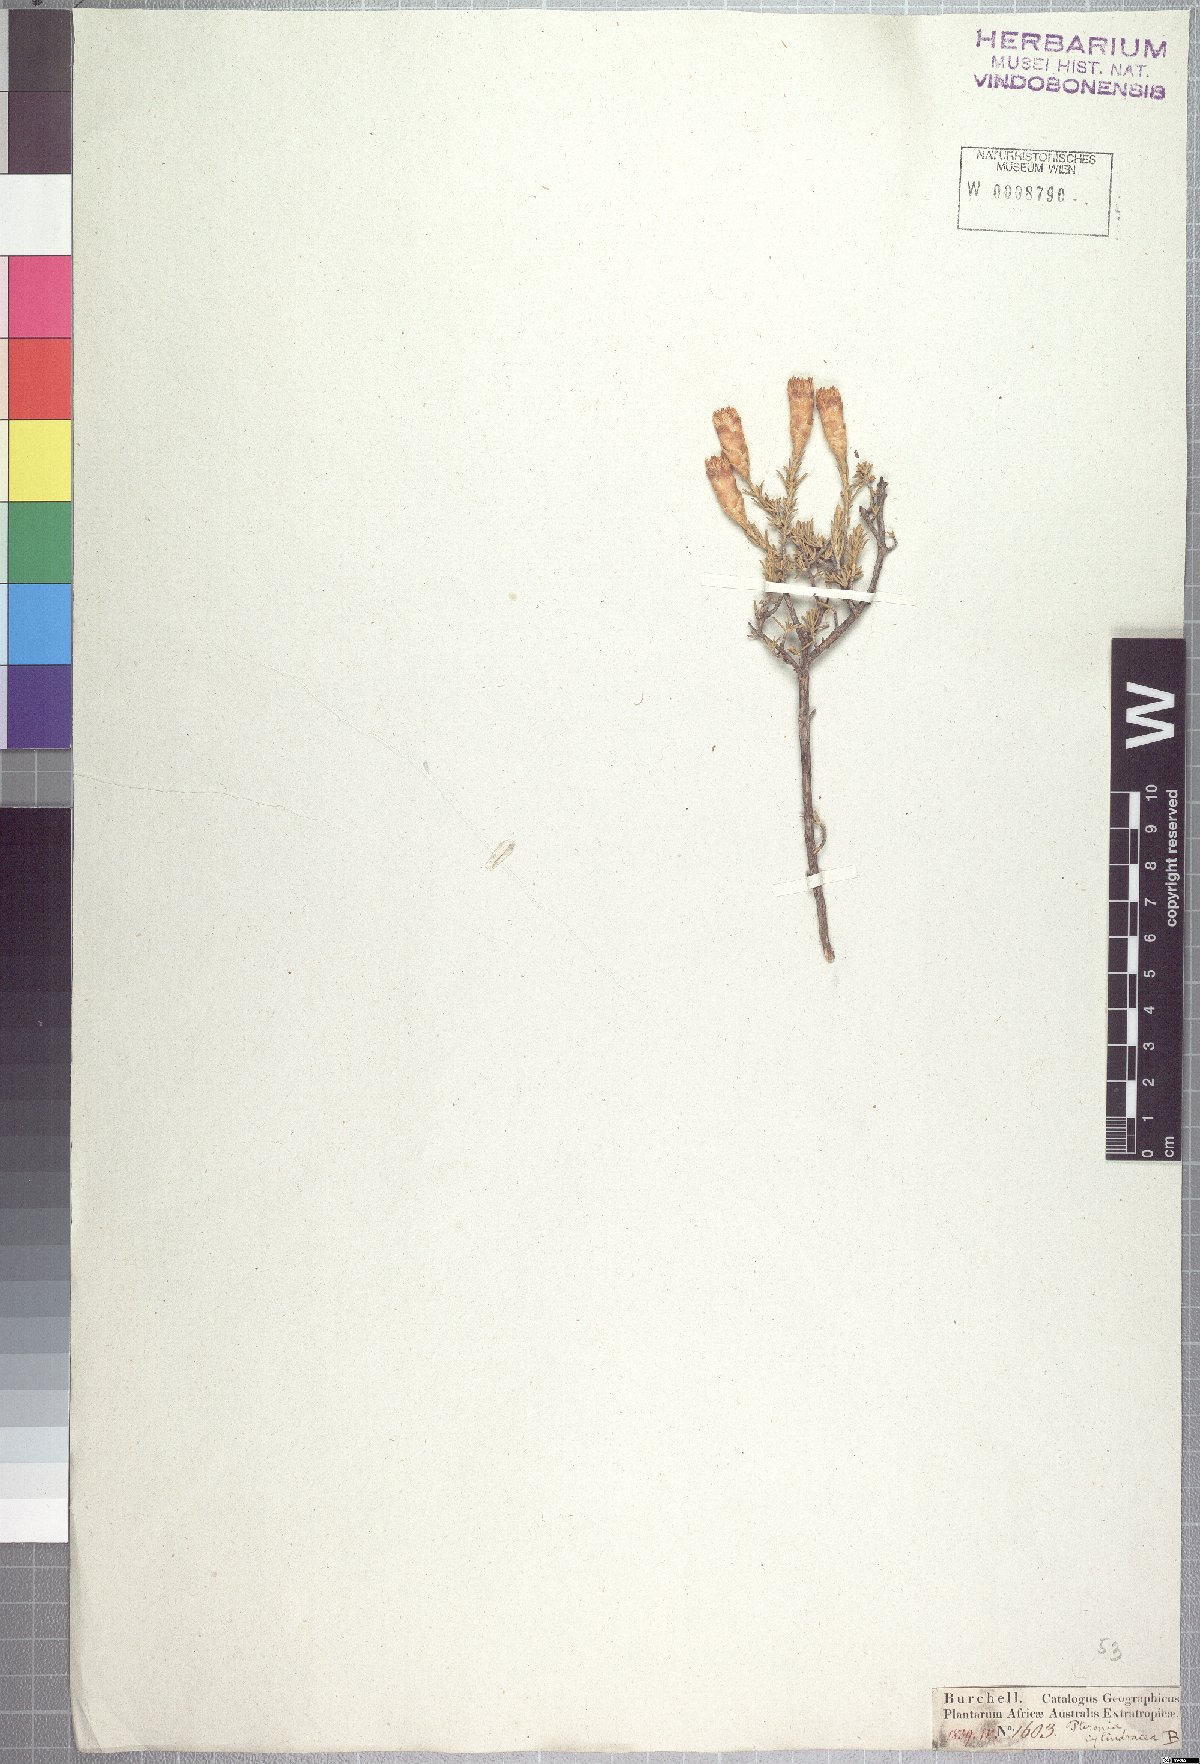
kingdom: Plantae
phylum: Tracheophyta
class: Magnoliopsida
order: Asterales
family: Asteraceae
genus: Pteronia
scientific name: Pteronia cylindracea
